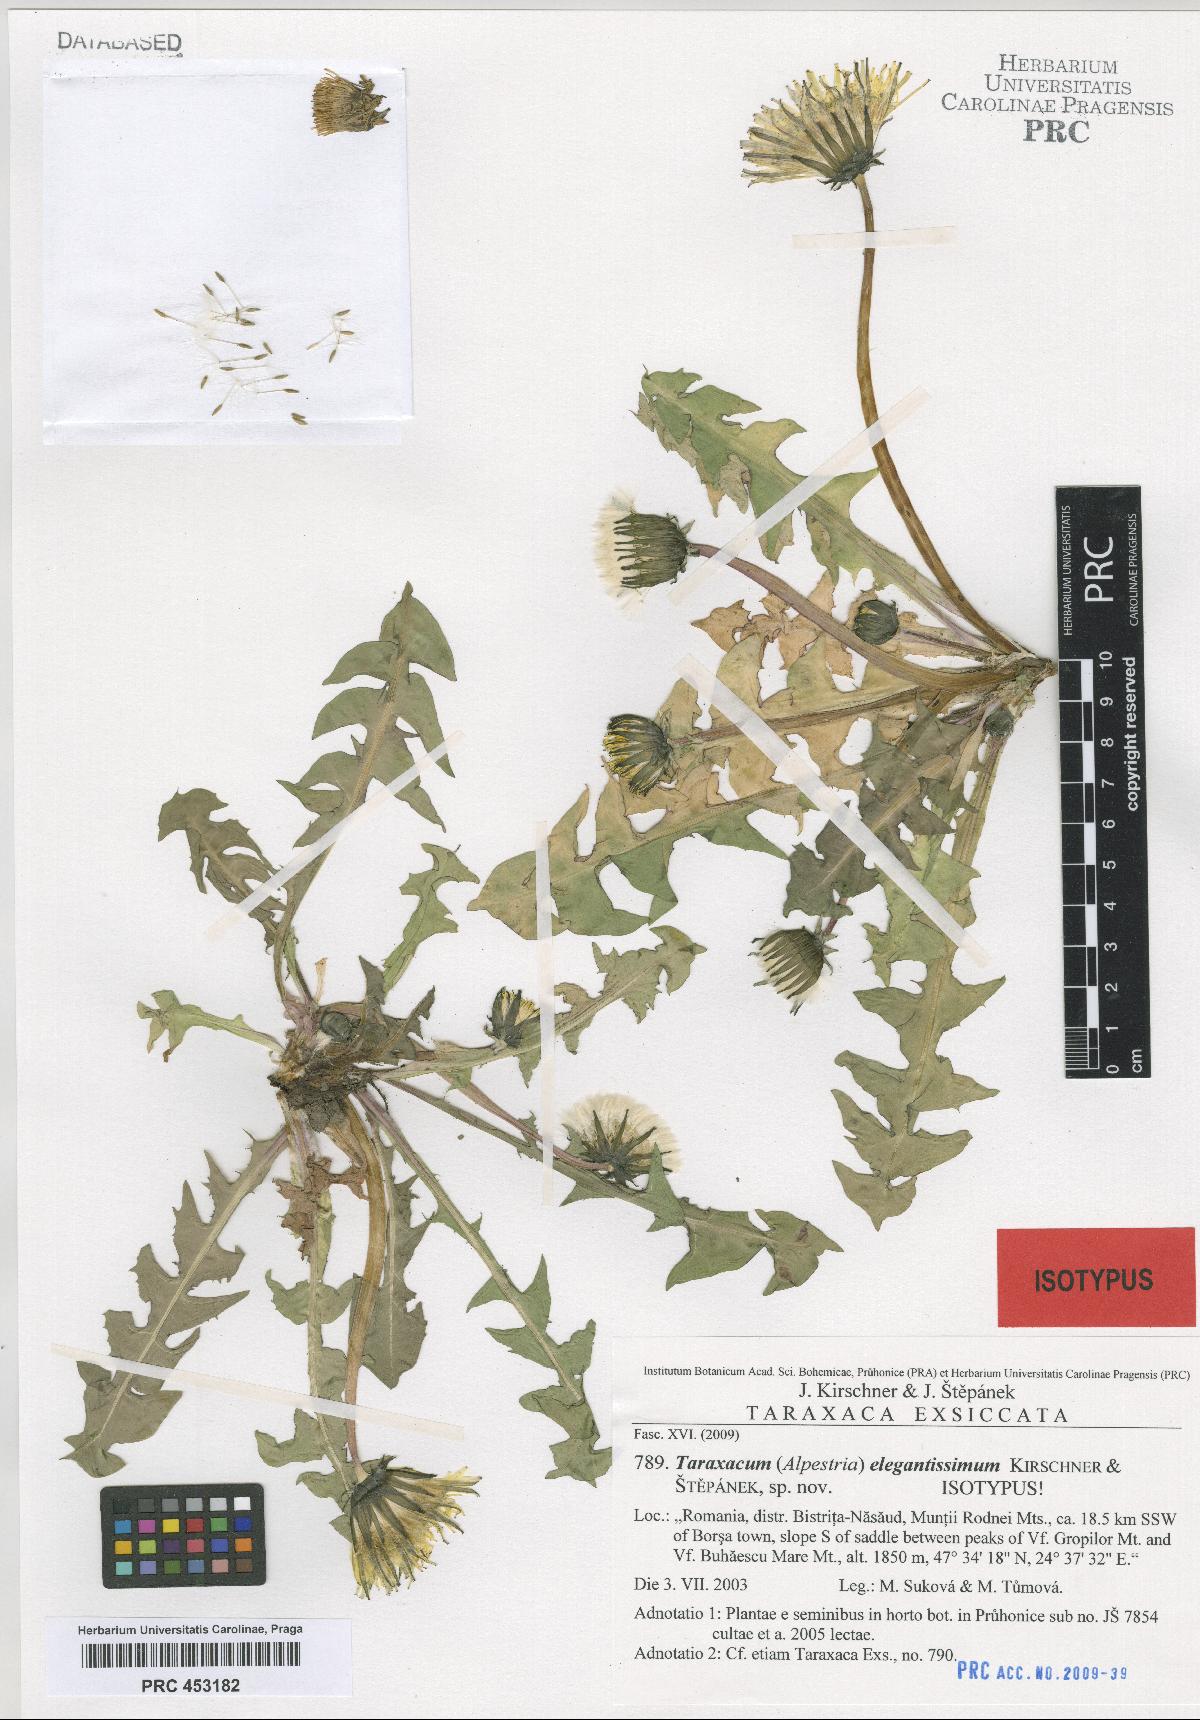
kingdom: Plantae
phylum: Tracheophyta
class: Magnoliopsida
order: Asterales
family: Asteraceae
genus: Taraxacum
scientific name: Taraxacum elegantissimum
